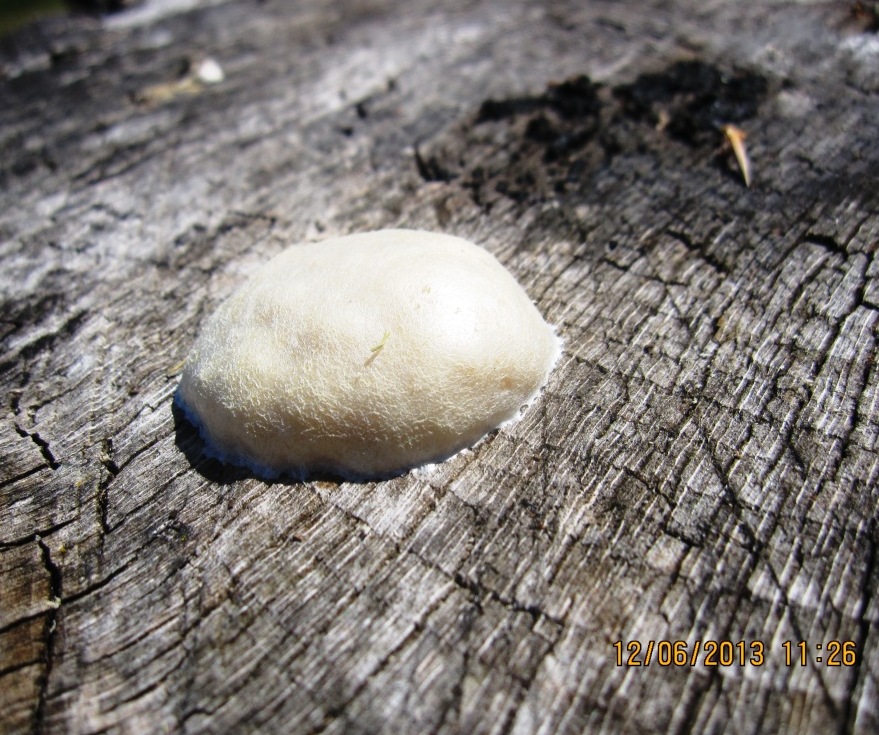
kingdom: Protozoa
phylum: Mycetozoa
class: Myxomycetes
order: Cribrariales
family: Tubiferaceae
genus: Reticularia
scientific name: Reticularia lycoperdon
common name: skinnende støvpude
